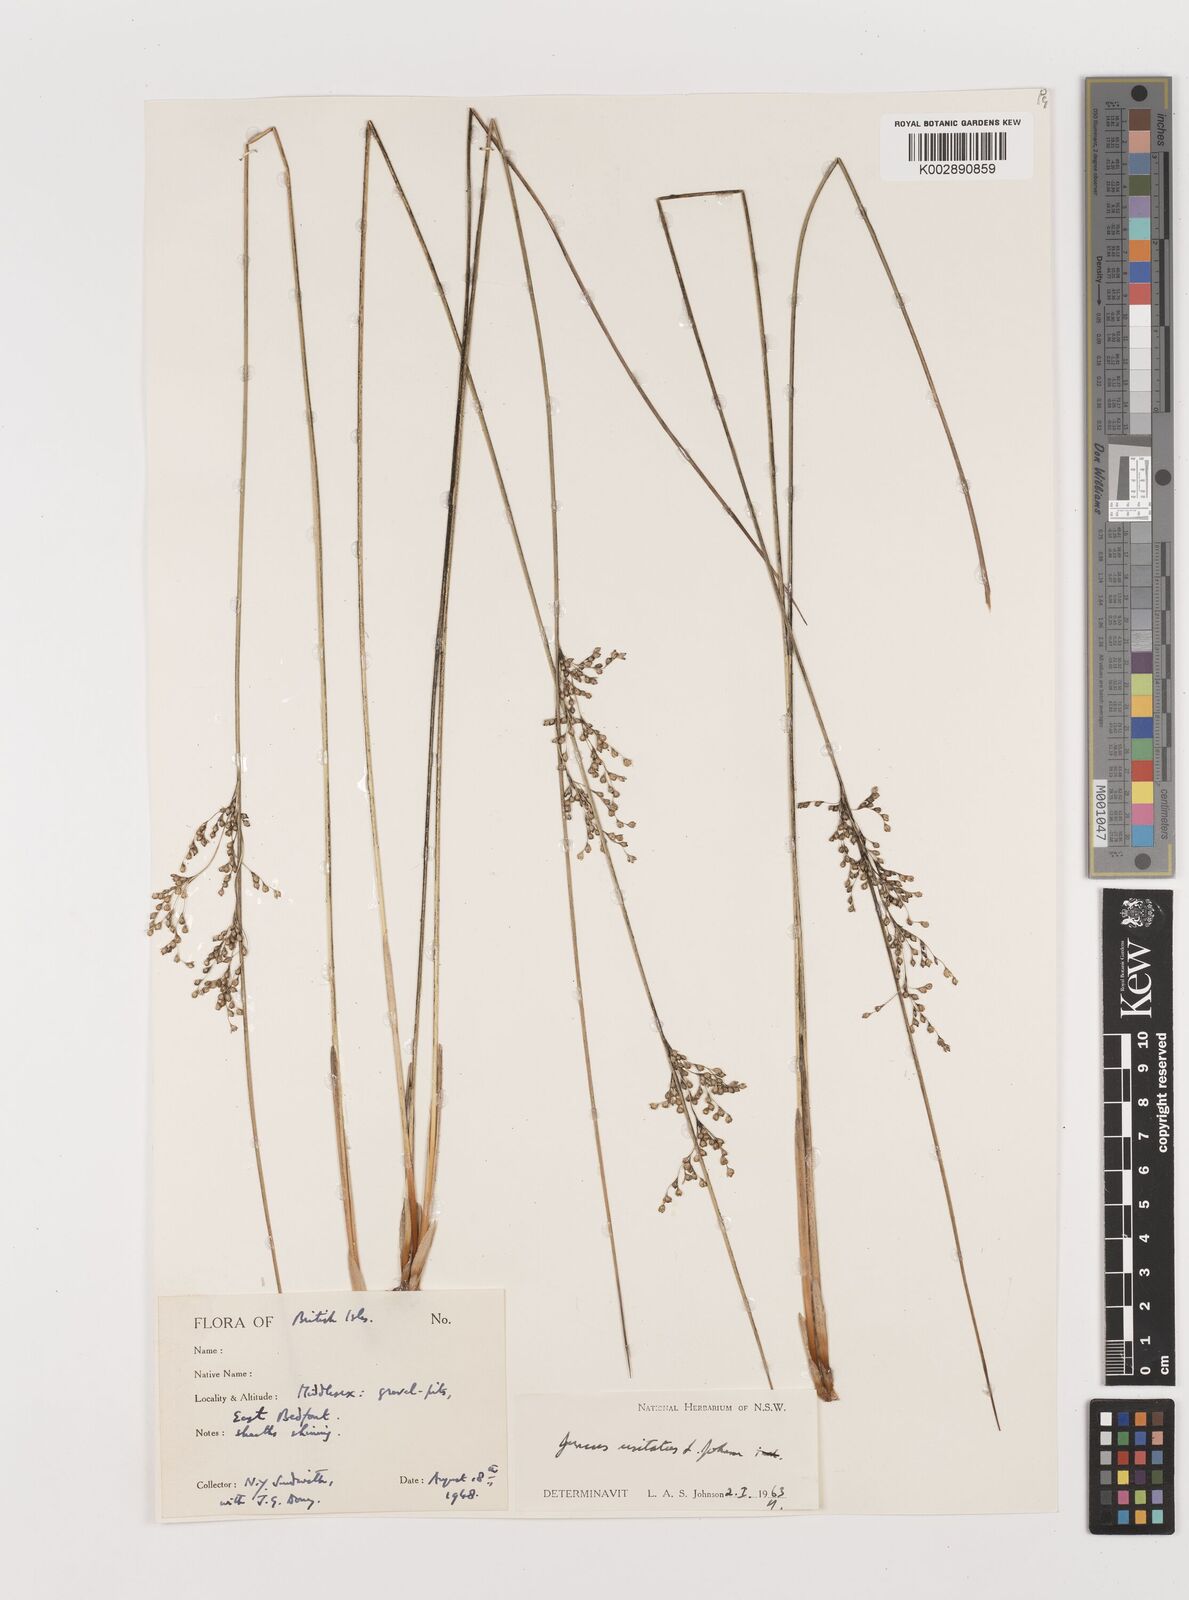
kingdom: Plantae
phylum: Tracheophyta
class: Liliopsida
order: Poales
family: Juncaceae
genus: Juncus
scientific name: Juncus usitatus
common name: Rush
